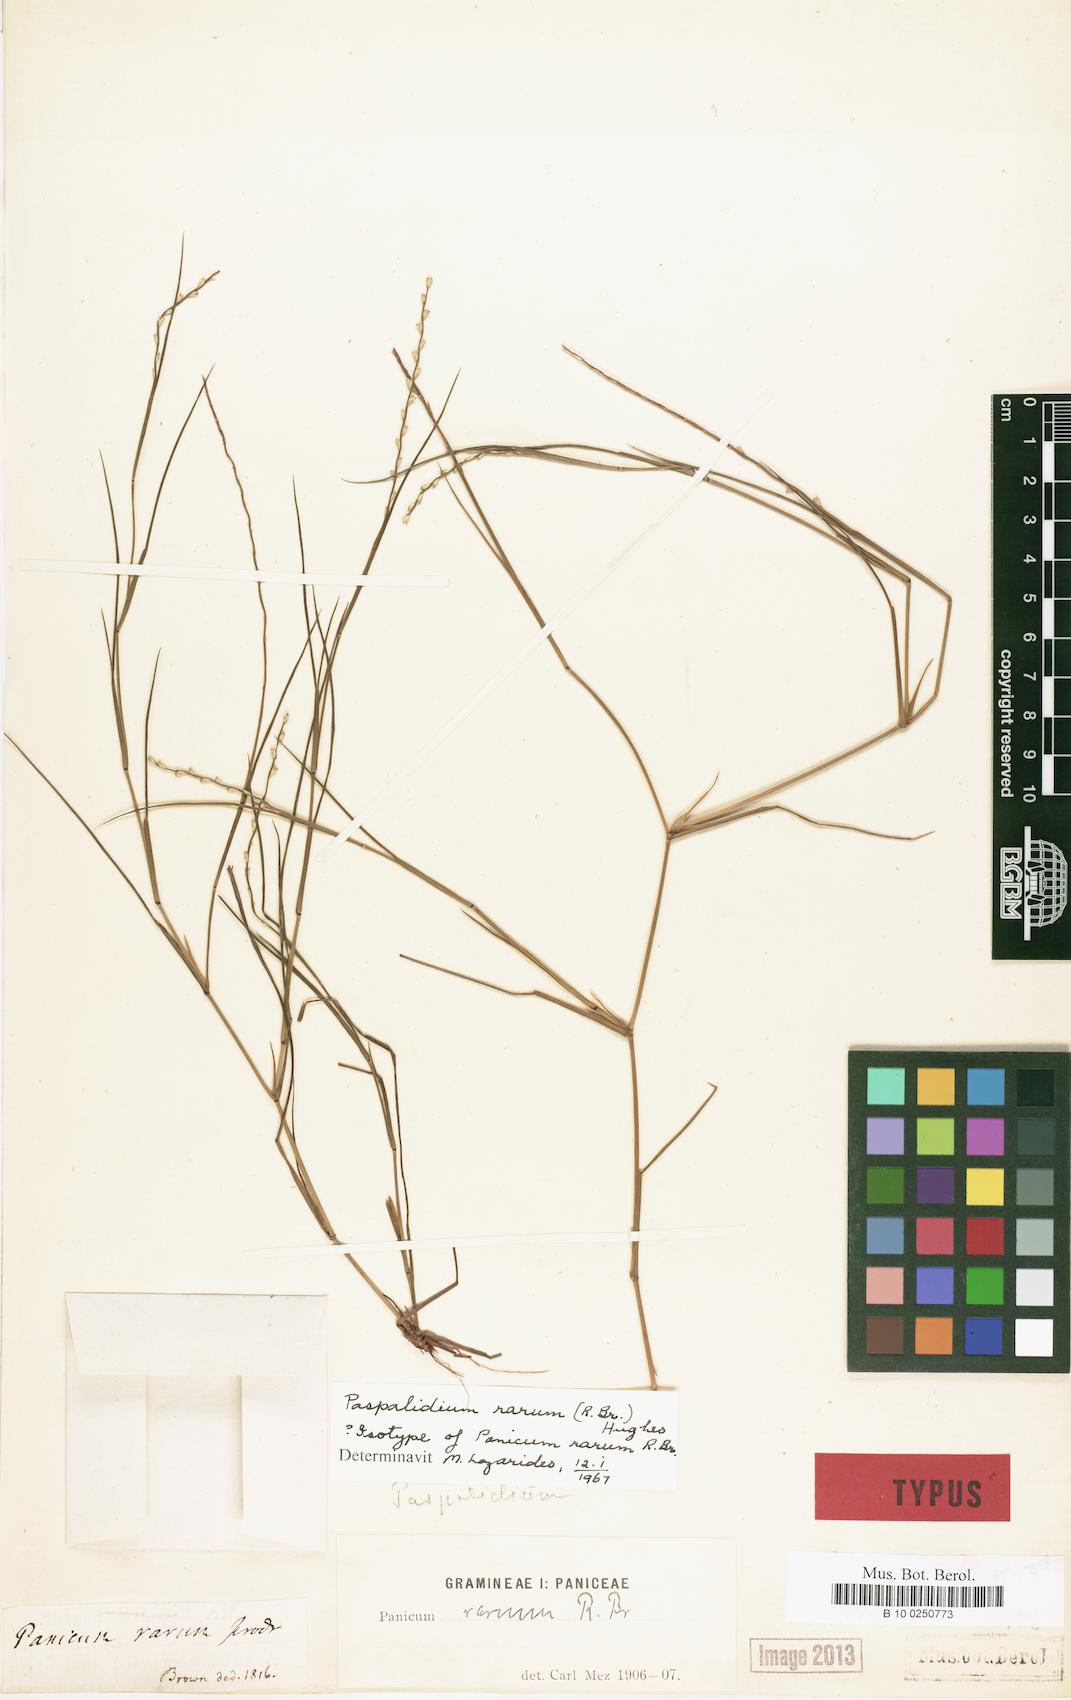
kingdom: Plantae
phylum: Tracheophyta
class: Liliopsida
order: Poales
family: Poaceae
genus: Setaria
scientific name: Setaria rara
